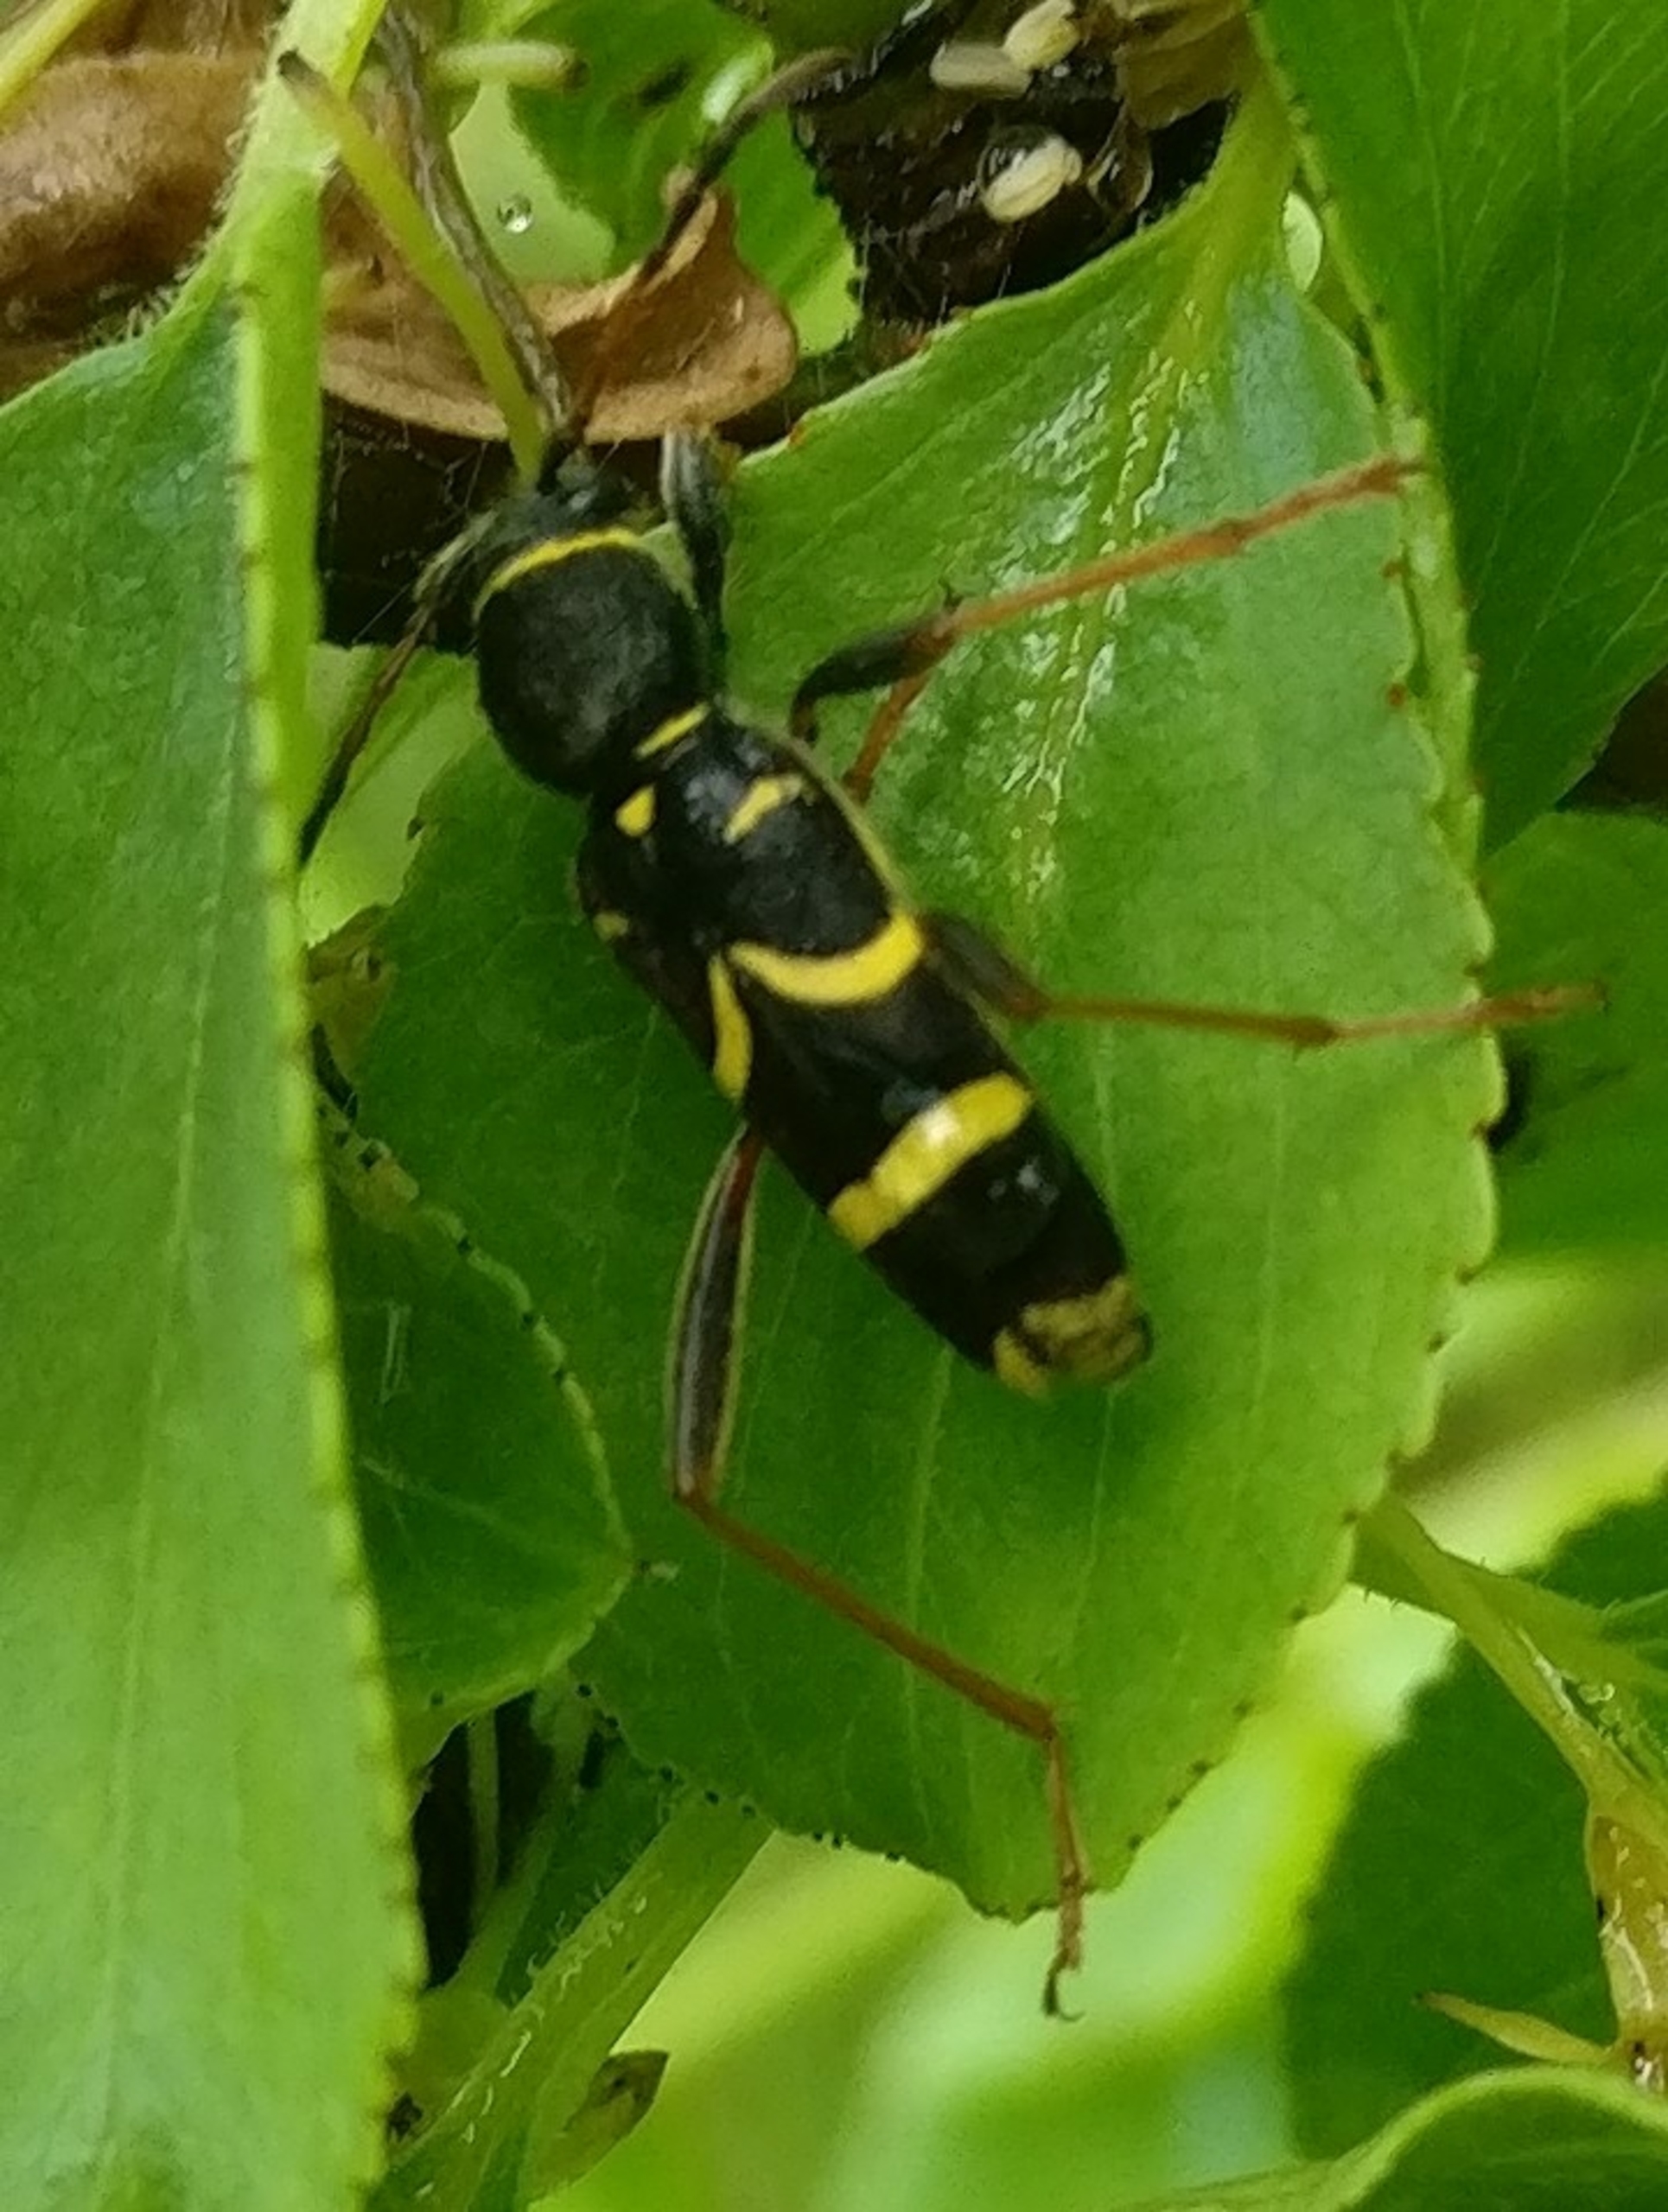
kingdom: Animalia
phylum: Arthropoda
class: Insecta
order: Coleoptera
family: Cerambycidae
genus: Clytus
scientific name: Clytus arietis
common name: Lille hvepsebuk
